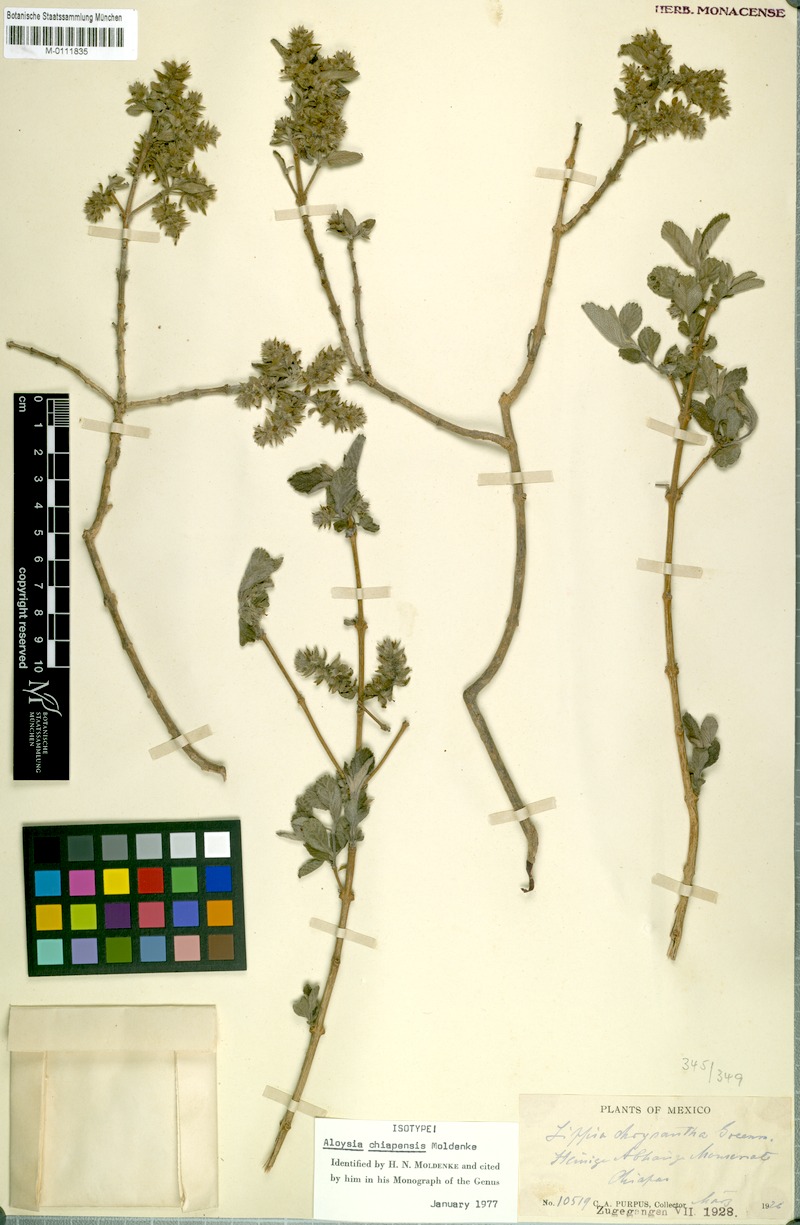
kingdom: Plantae
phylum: Tracheophyta
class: Magnoliopsida
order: Lamiales
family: Verbenaceae
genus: Aloysia
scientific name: Aloysia chiapensis
